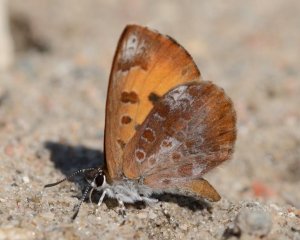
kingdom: Animalia
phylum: Arthropoda
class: Insecta
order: Lepidoptera
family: Lycaenidae
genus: Feniseca
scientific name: Feniseca tarquinius
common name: Harvester
